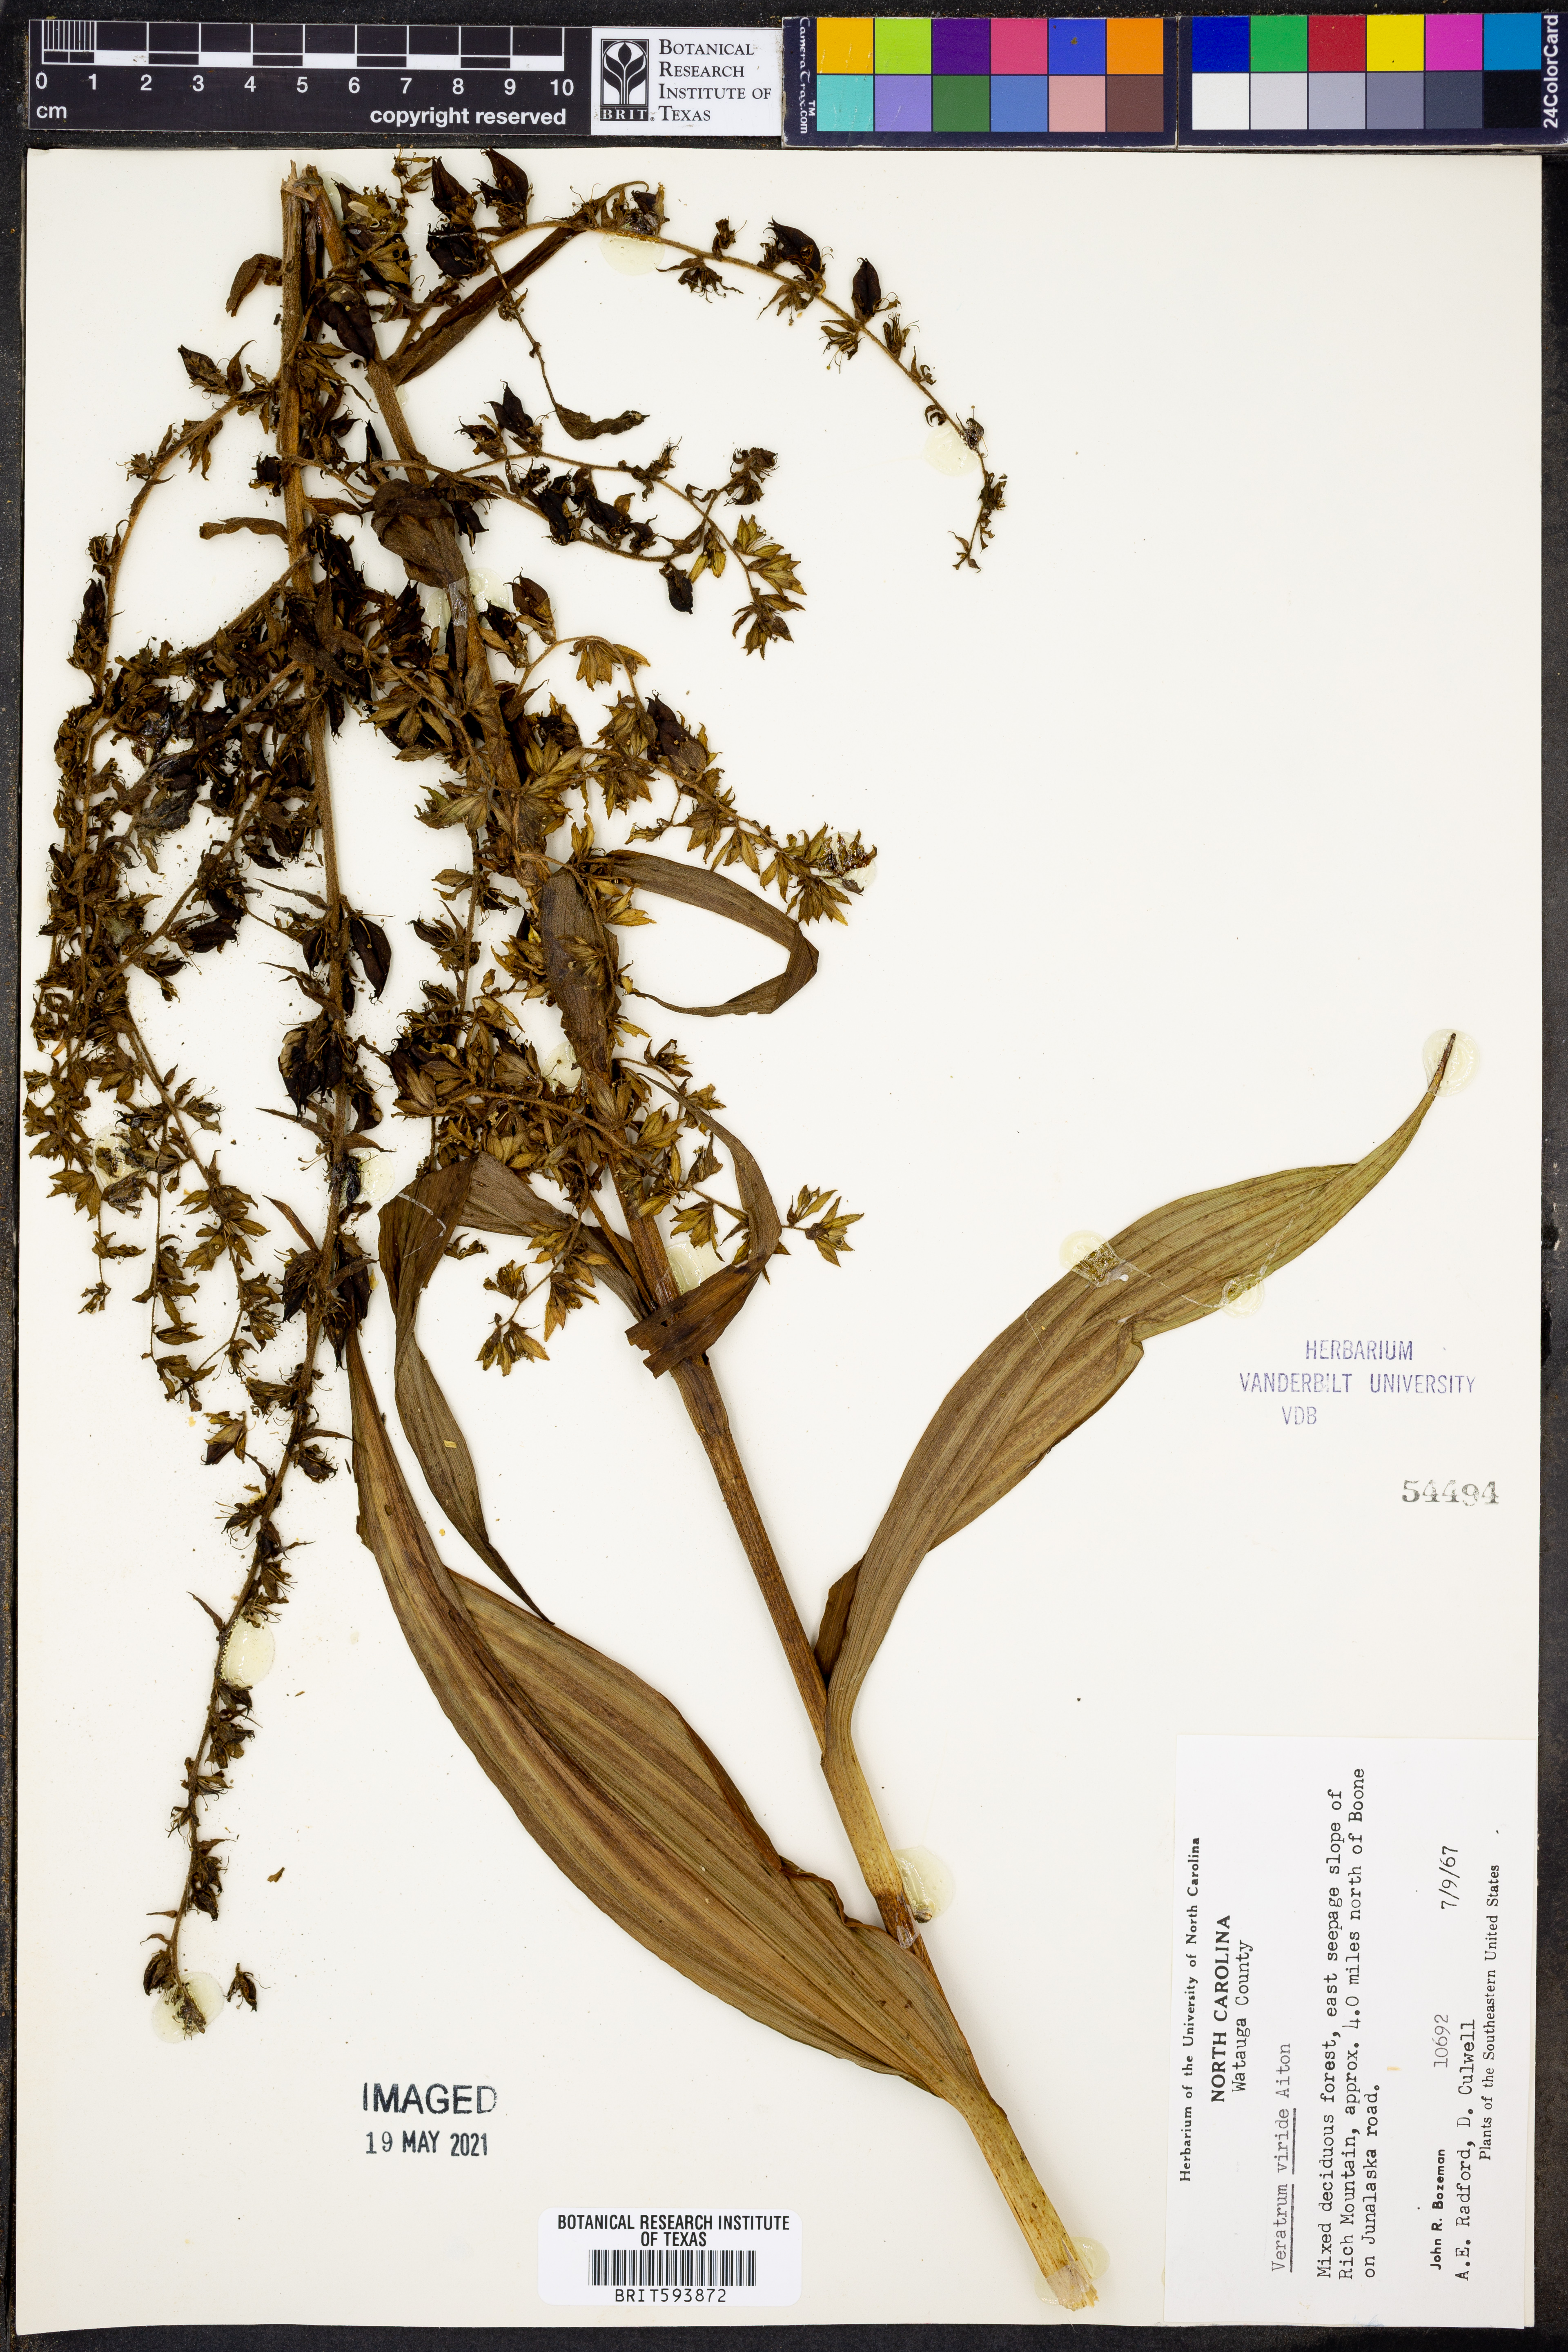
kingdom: Plantae
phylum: Tracheophyta
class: Liliopsida
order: Liliales
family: Melanthiaceae
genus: Veratrum
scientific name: Veratrum viride
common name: American false hellebore
